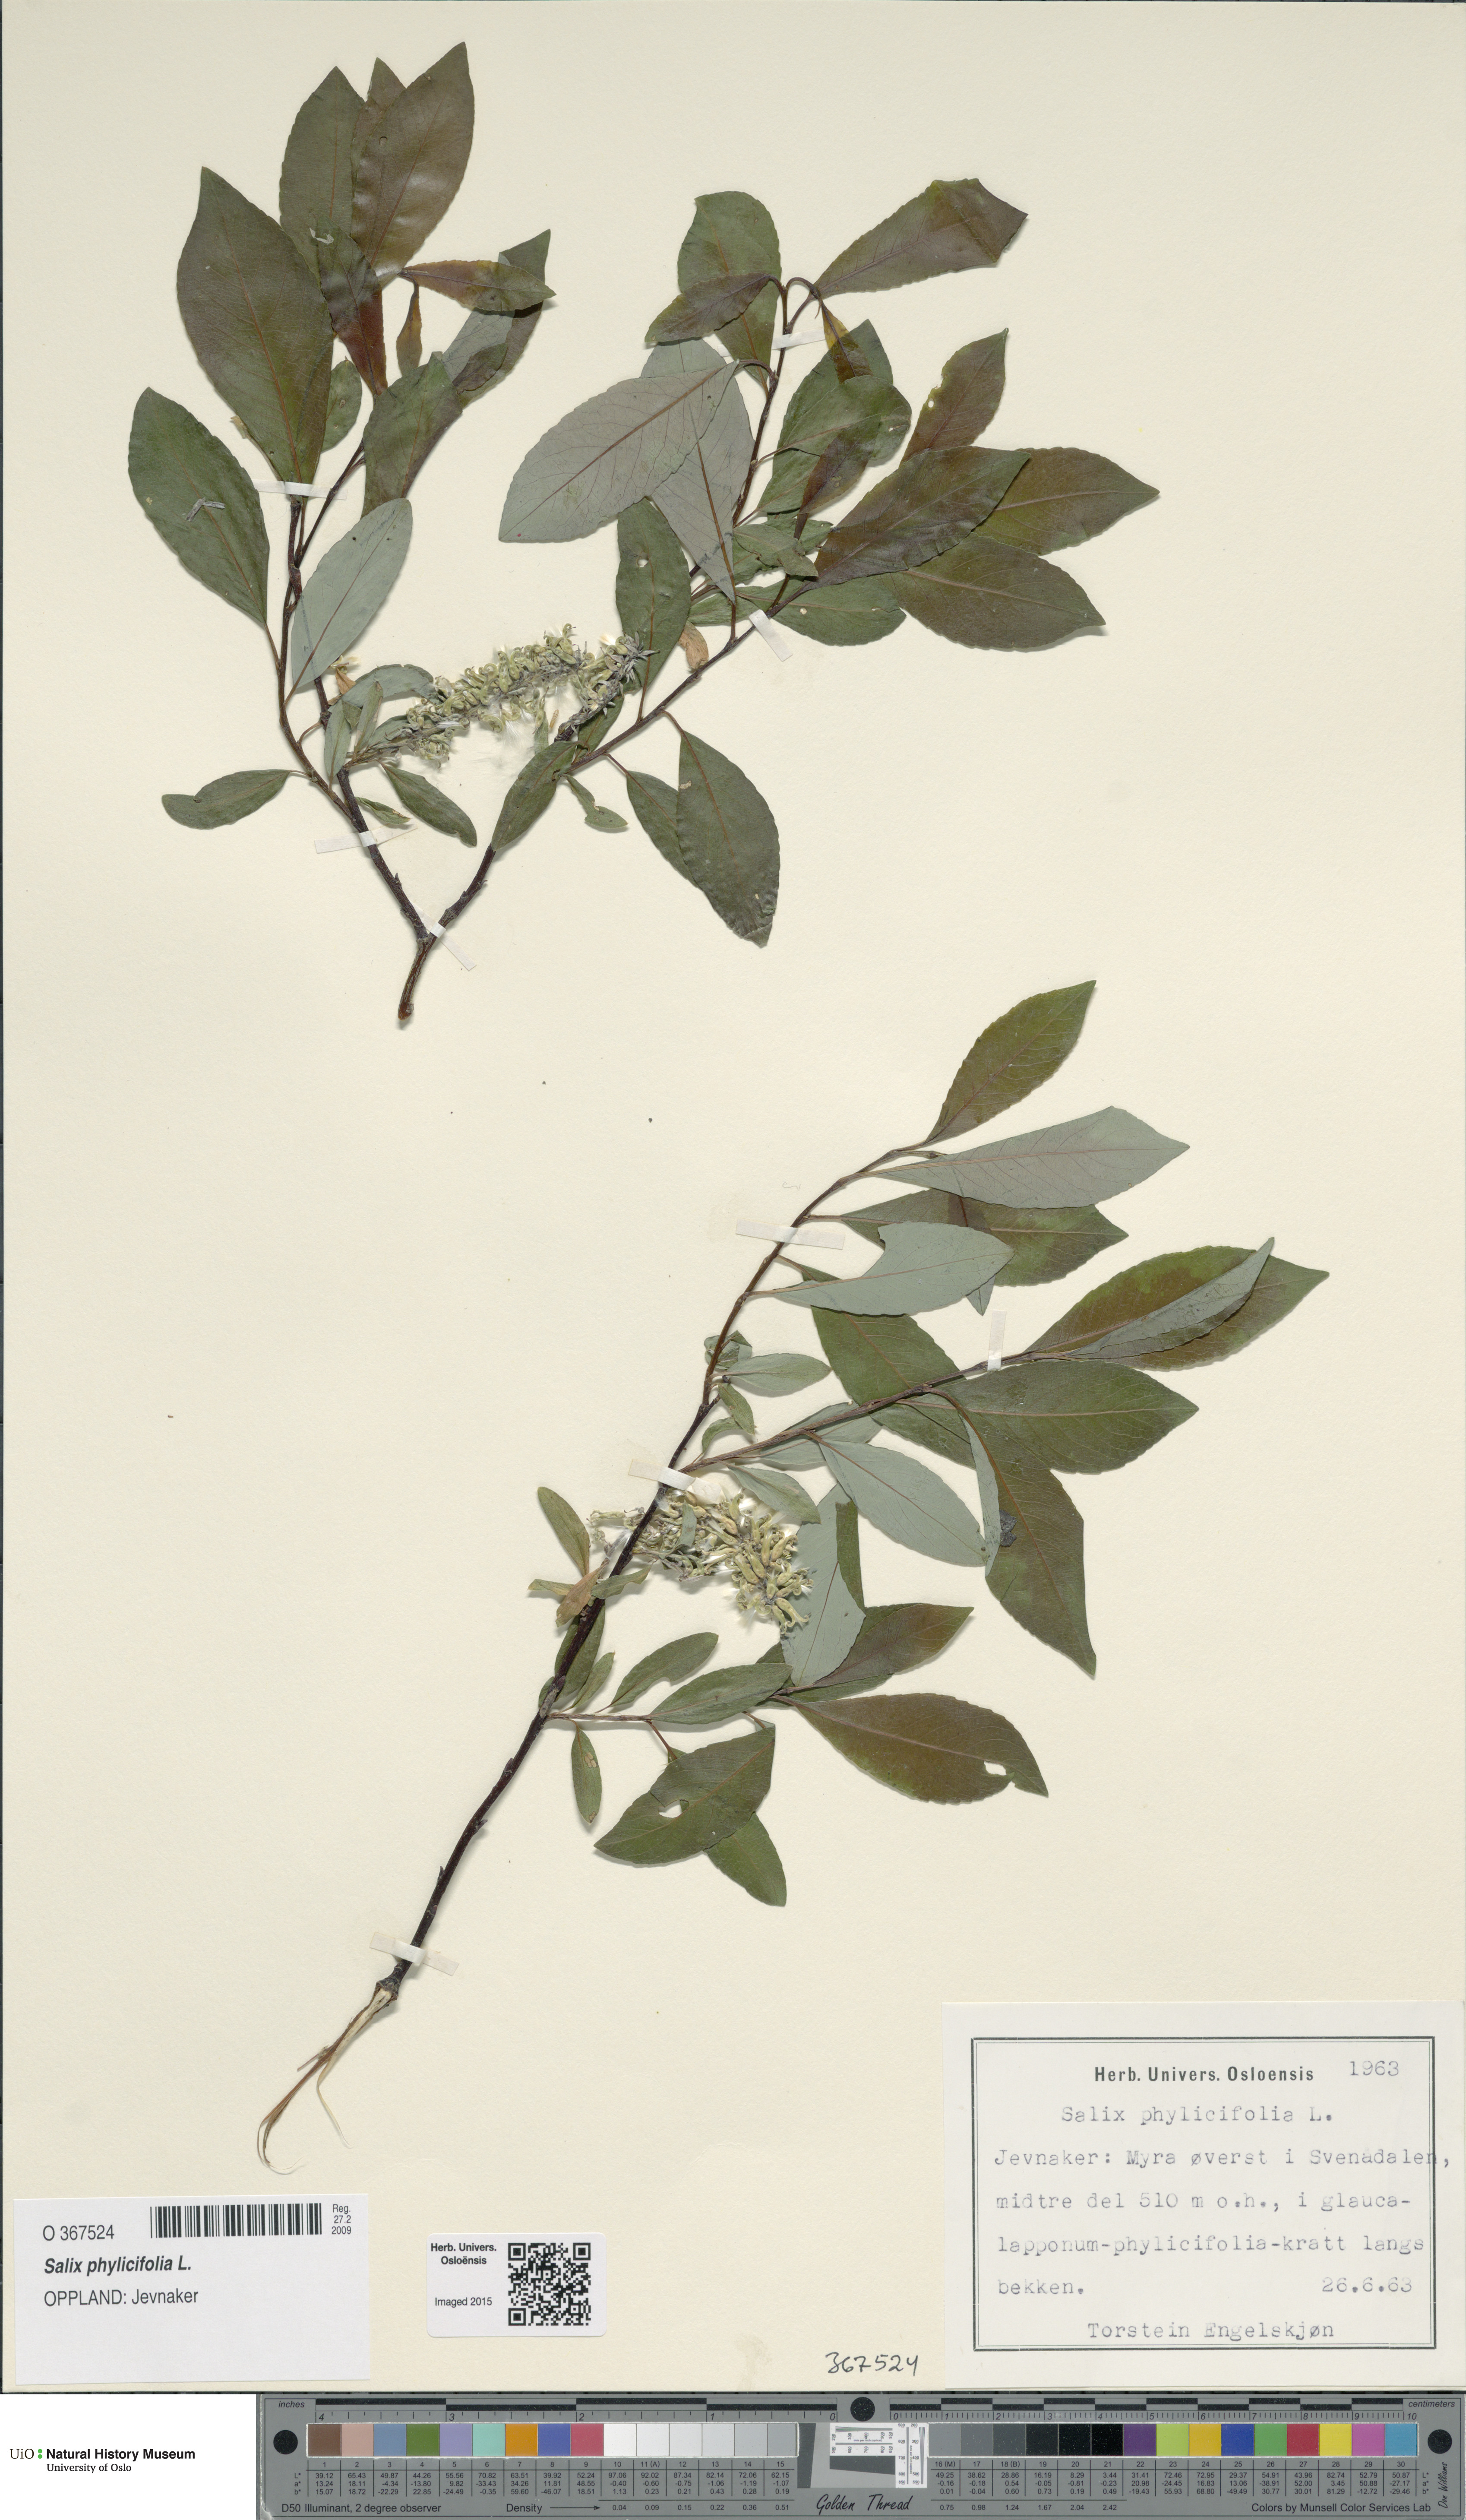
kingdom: Plantae
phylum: Tracheophyta
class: Magnoliopsida
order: Malpighiales
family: Salicaceae
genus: Salix
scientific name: Salix phylicifolia
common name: Tea-leaved willow
